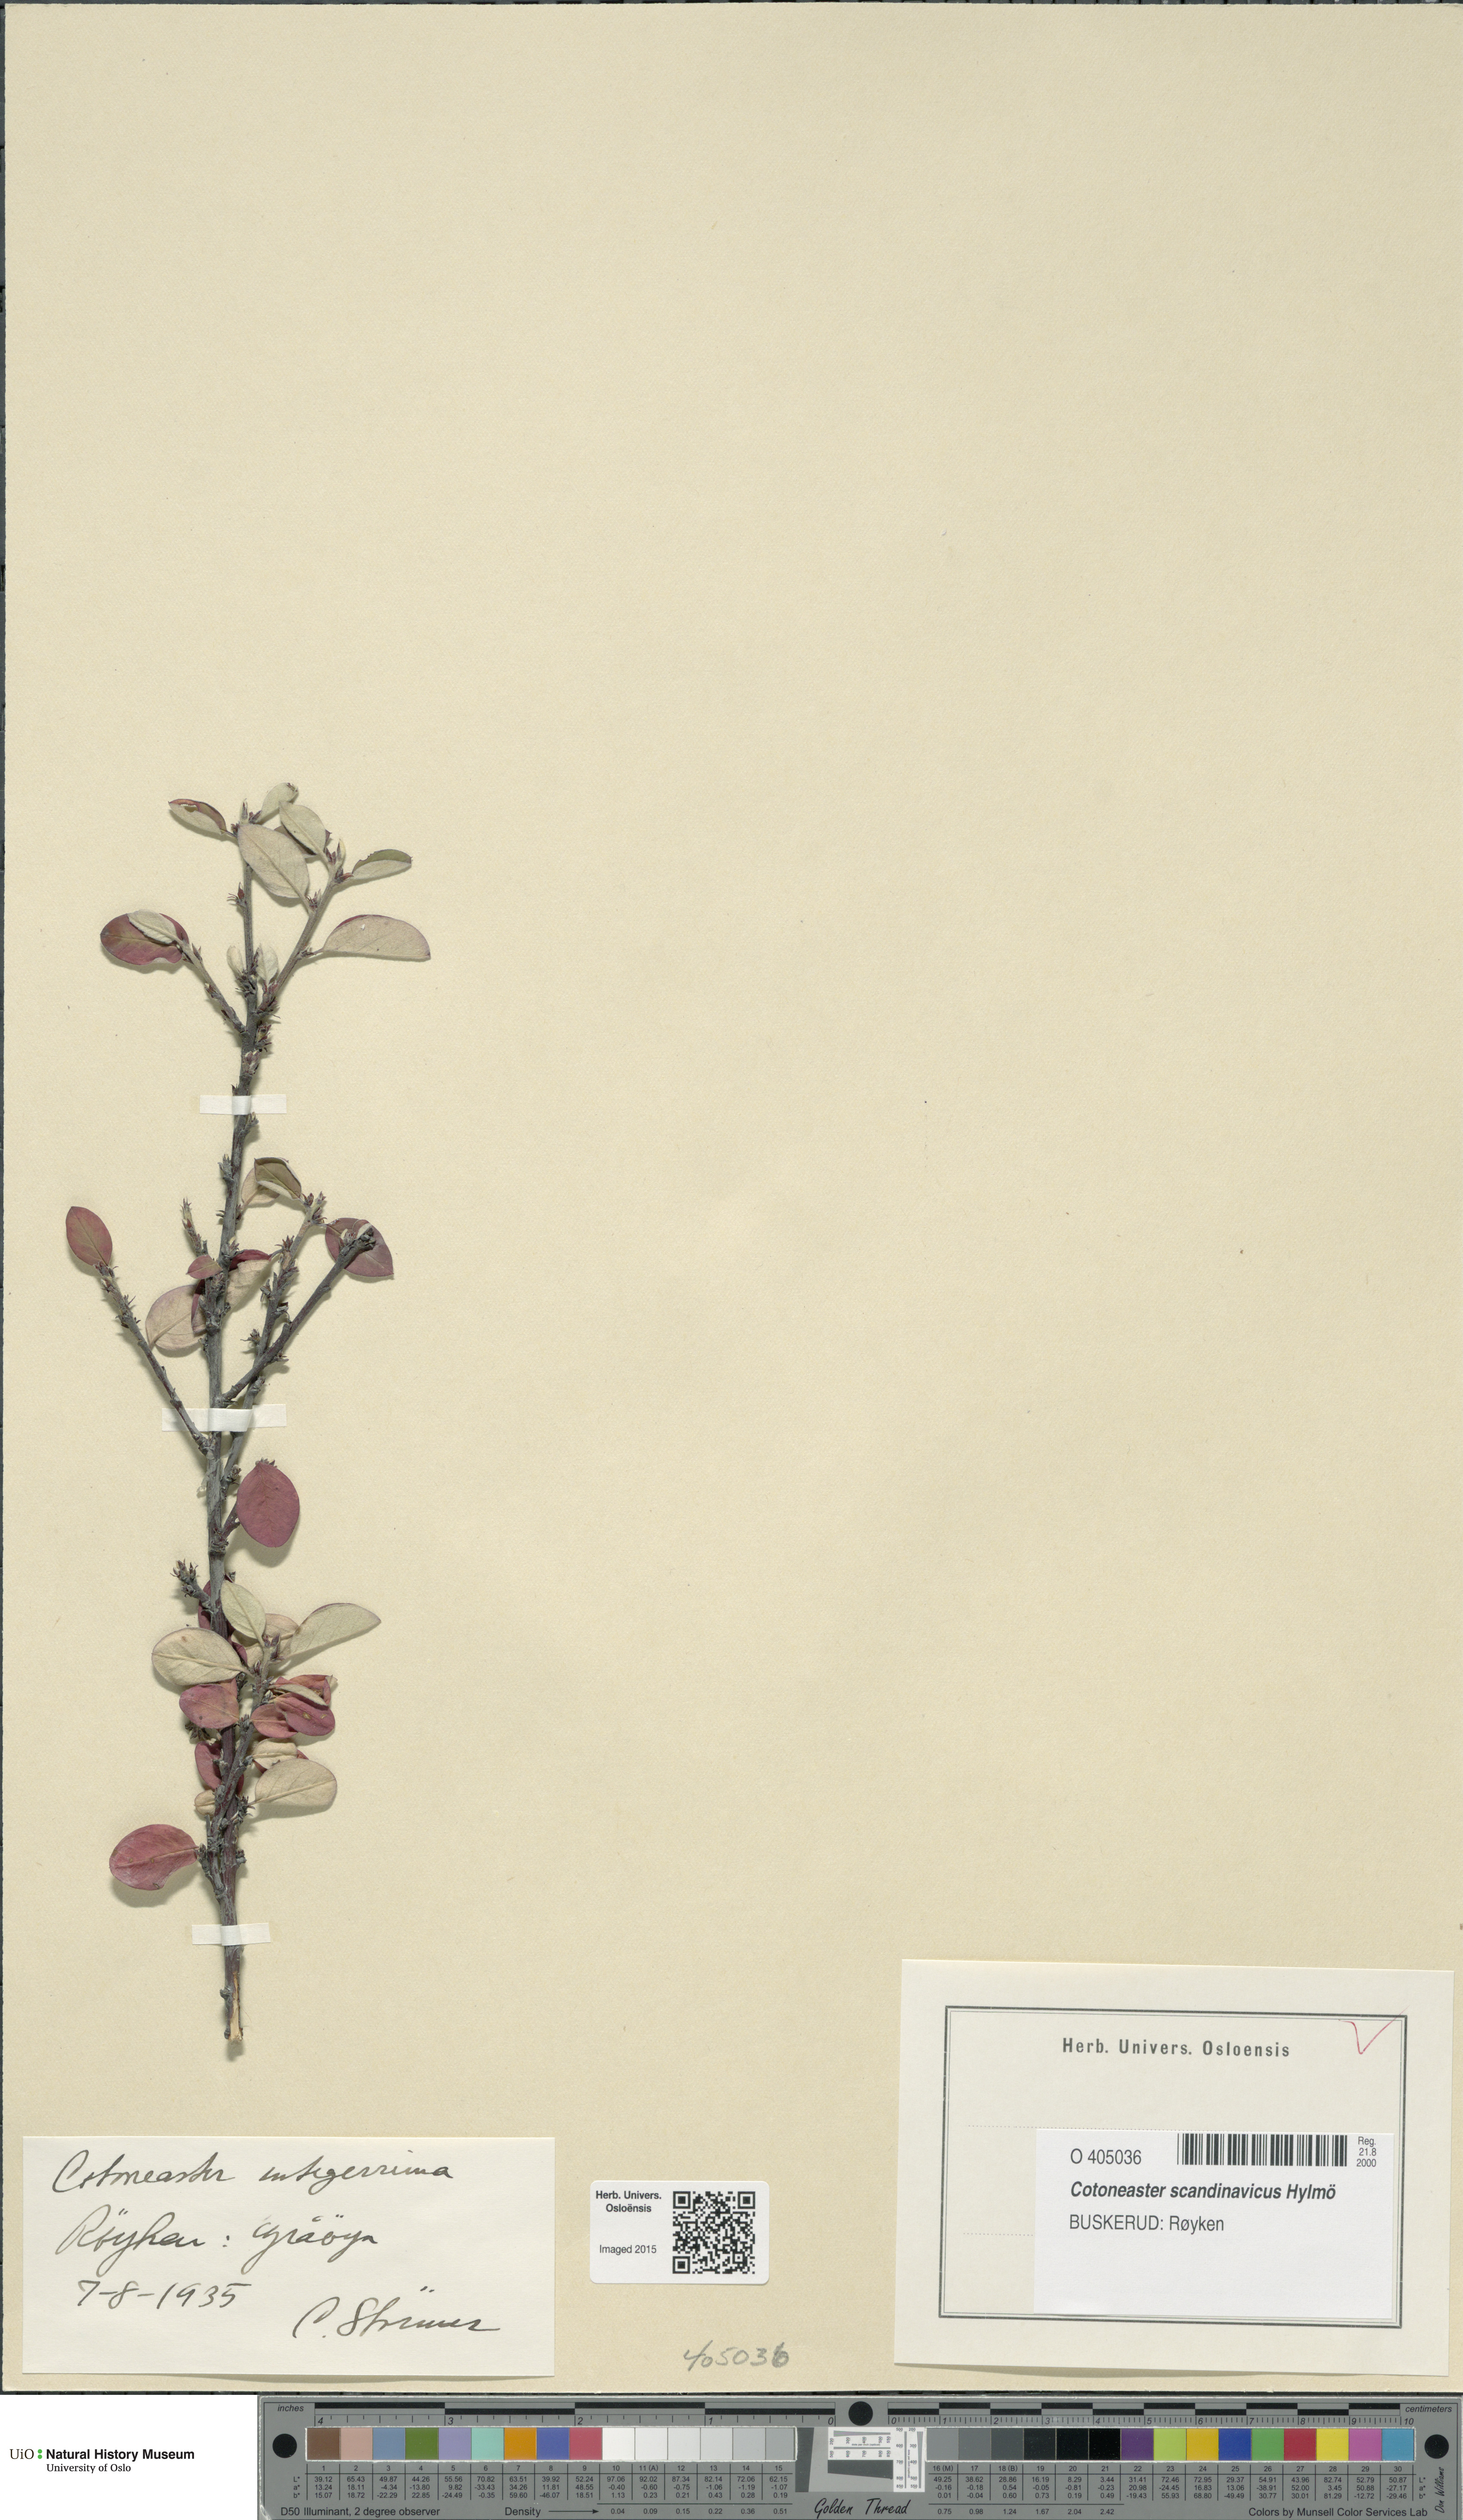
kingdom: Plantae
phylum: Tracheophyta
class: Magnoliopsida
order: Rosales
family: Rosaceae
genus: Cotoneaster
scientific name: Cotoneaster integerrimus
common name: Wild cotoneaster
